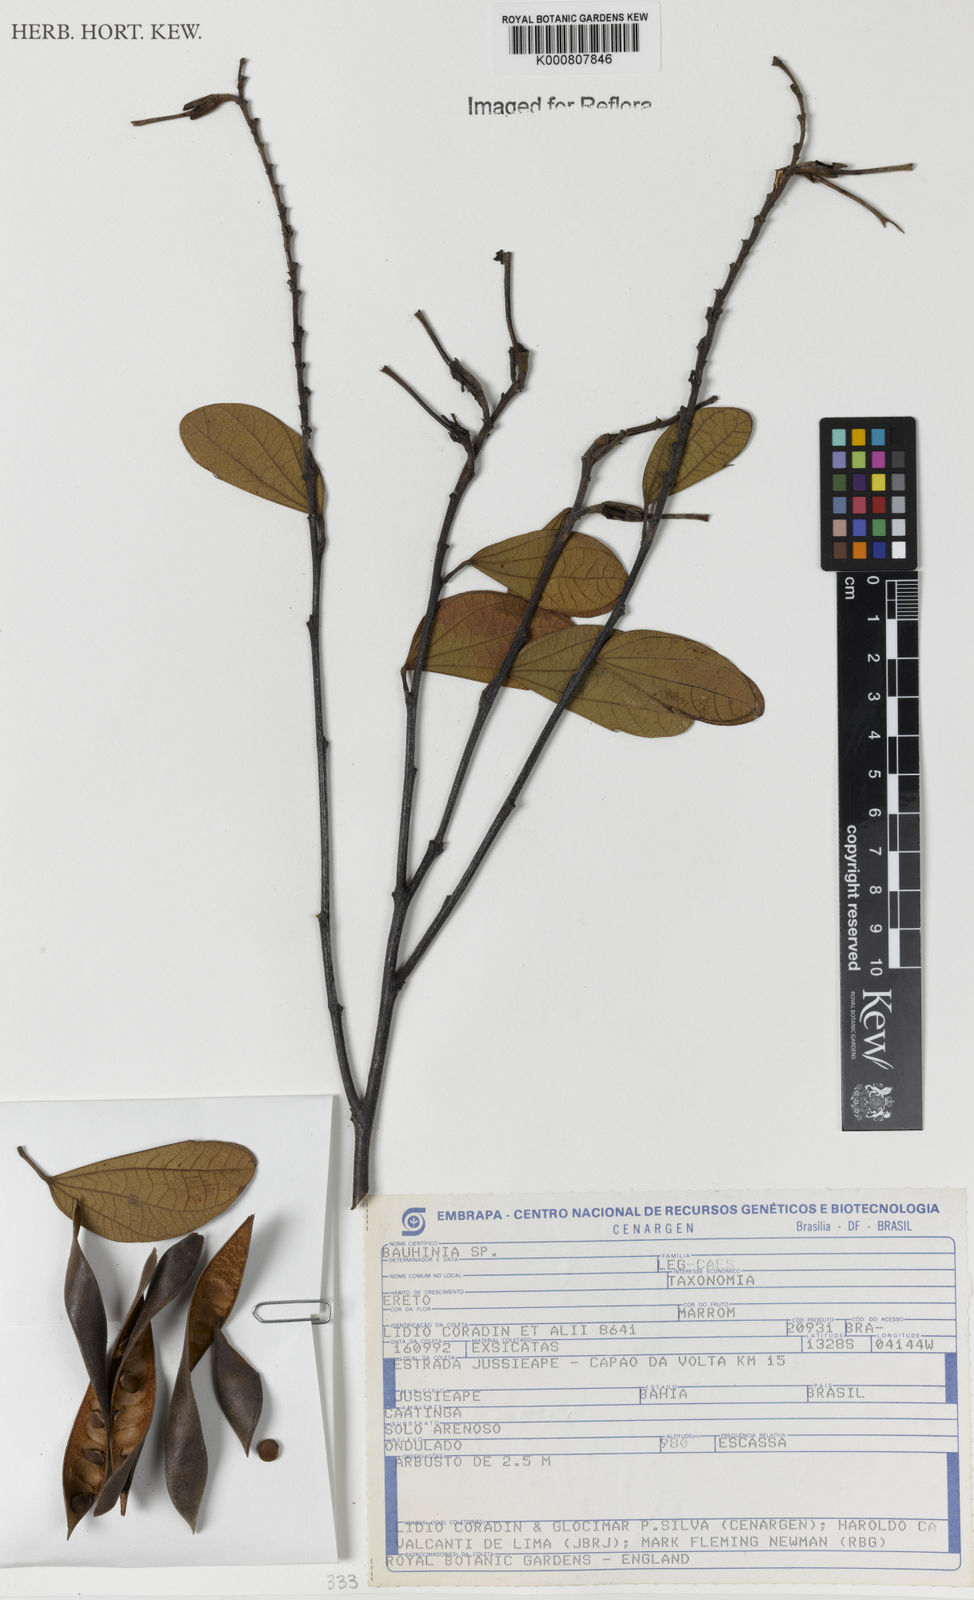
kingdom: Plantae
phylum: Tracheophyta
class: Magnoliopsida
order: Fabales
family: Fabaceae
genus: Bauhinia
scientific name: Bauhinia
